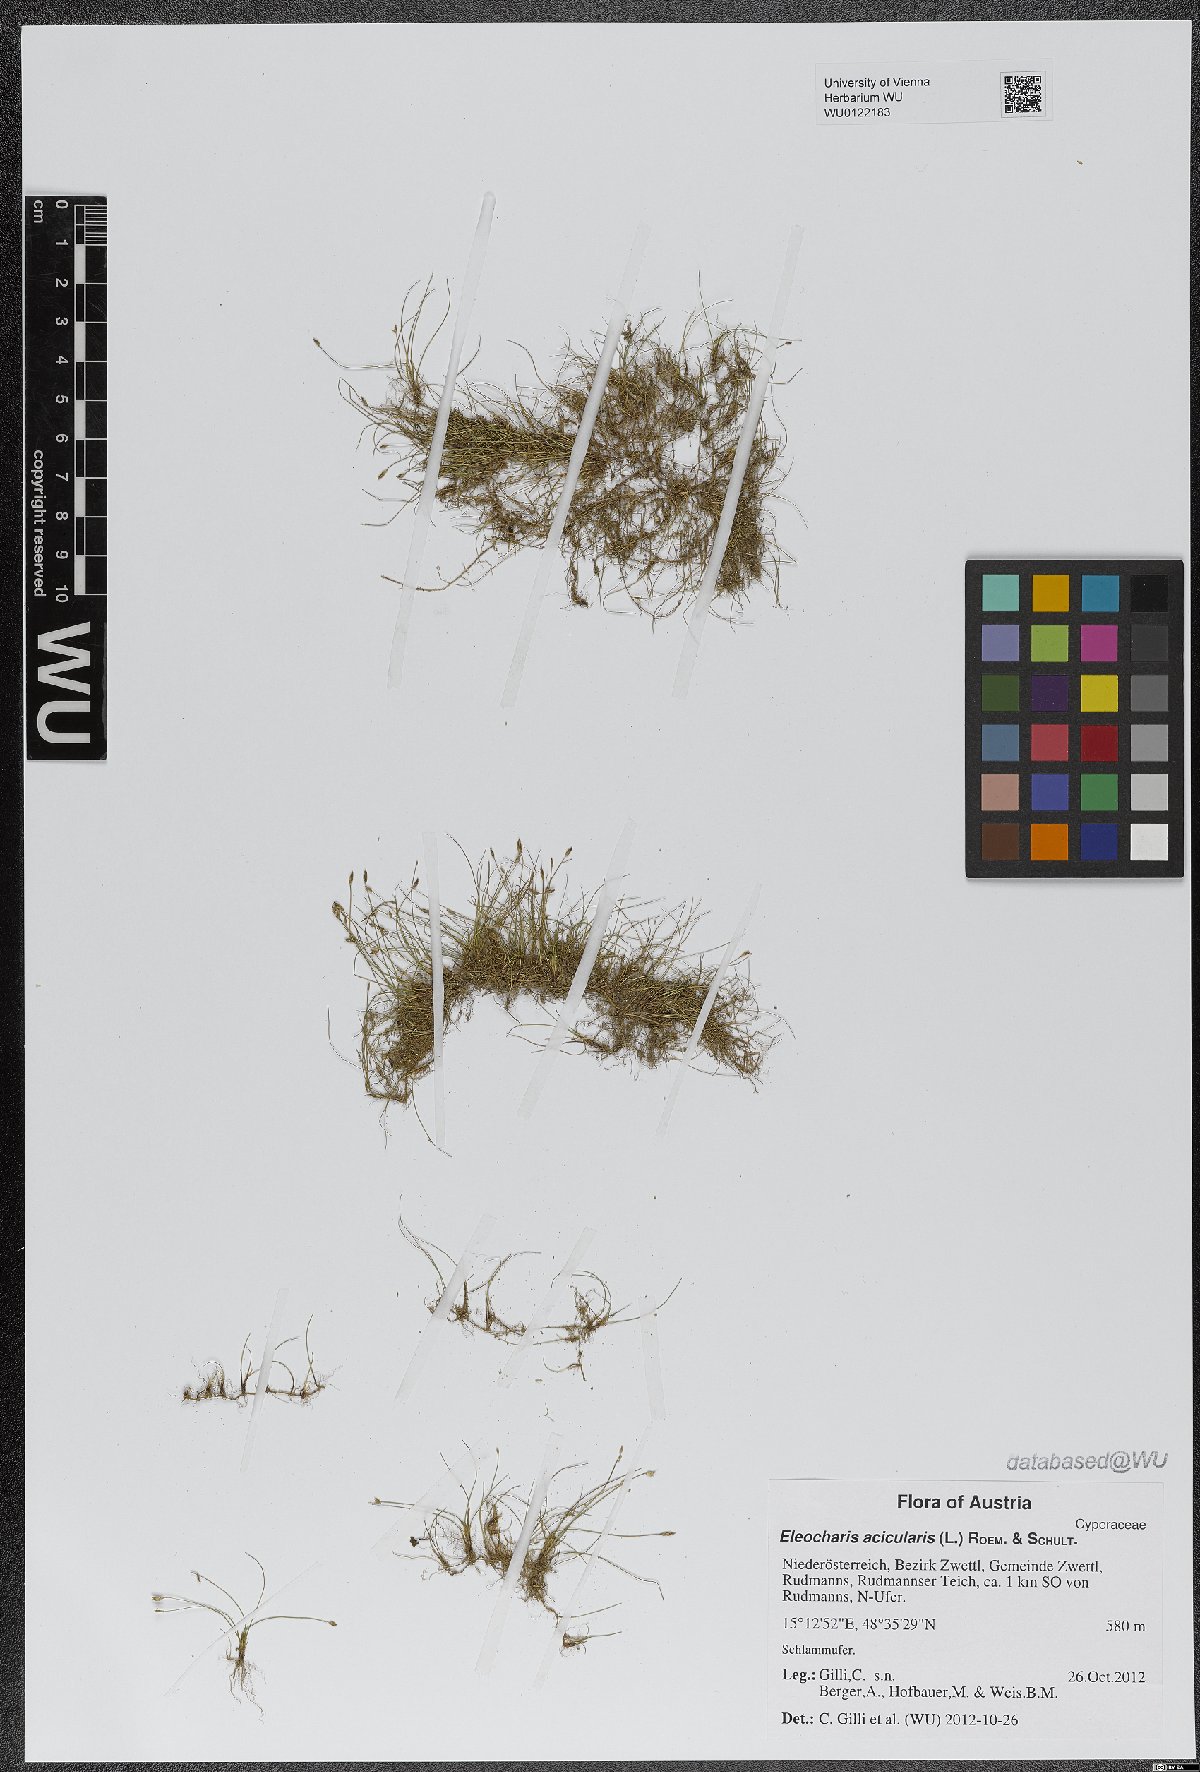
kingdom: Plantae
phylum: Tracheophyta
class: Liliopsida
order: Poales
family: Cyperaceae
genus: Eleocharis
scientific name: Eleocharis acicularis
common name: Needle spike-rush
